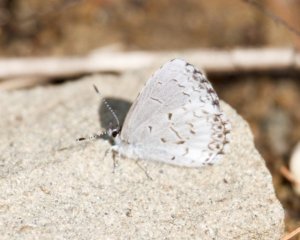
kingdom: Animalia
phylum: Arthropoda
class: Insecta
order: Lepidoptera
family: Lycaenidae
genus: Celastrina
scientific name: Celastrina
